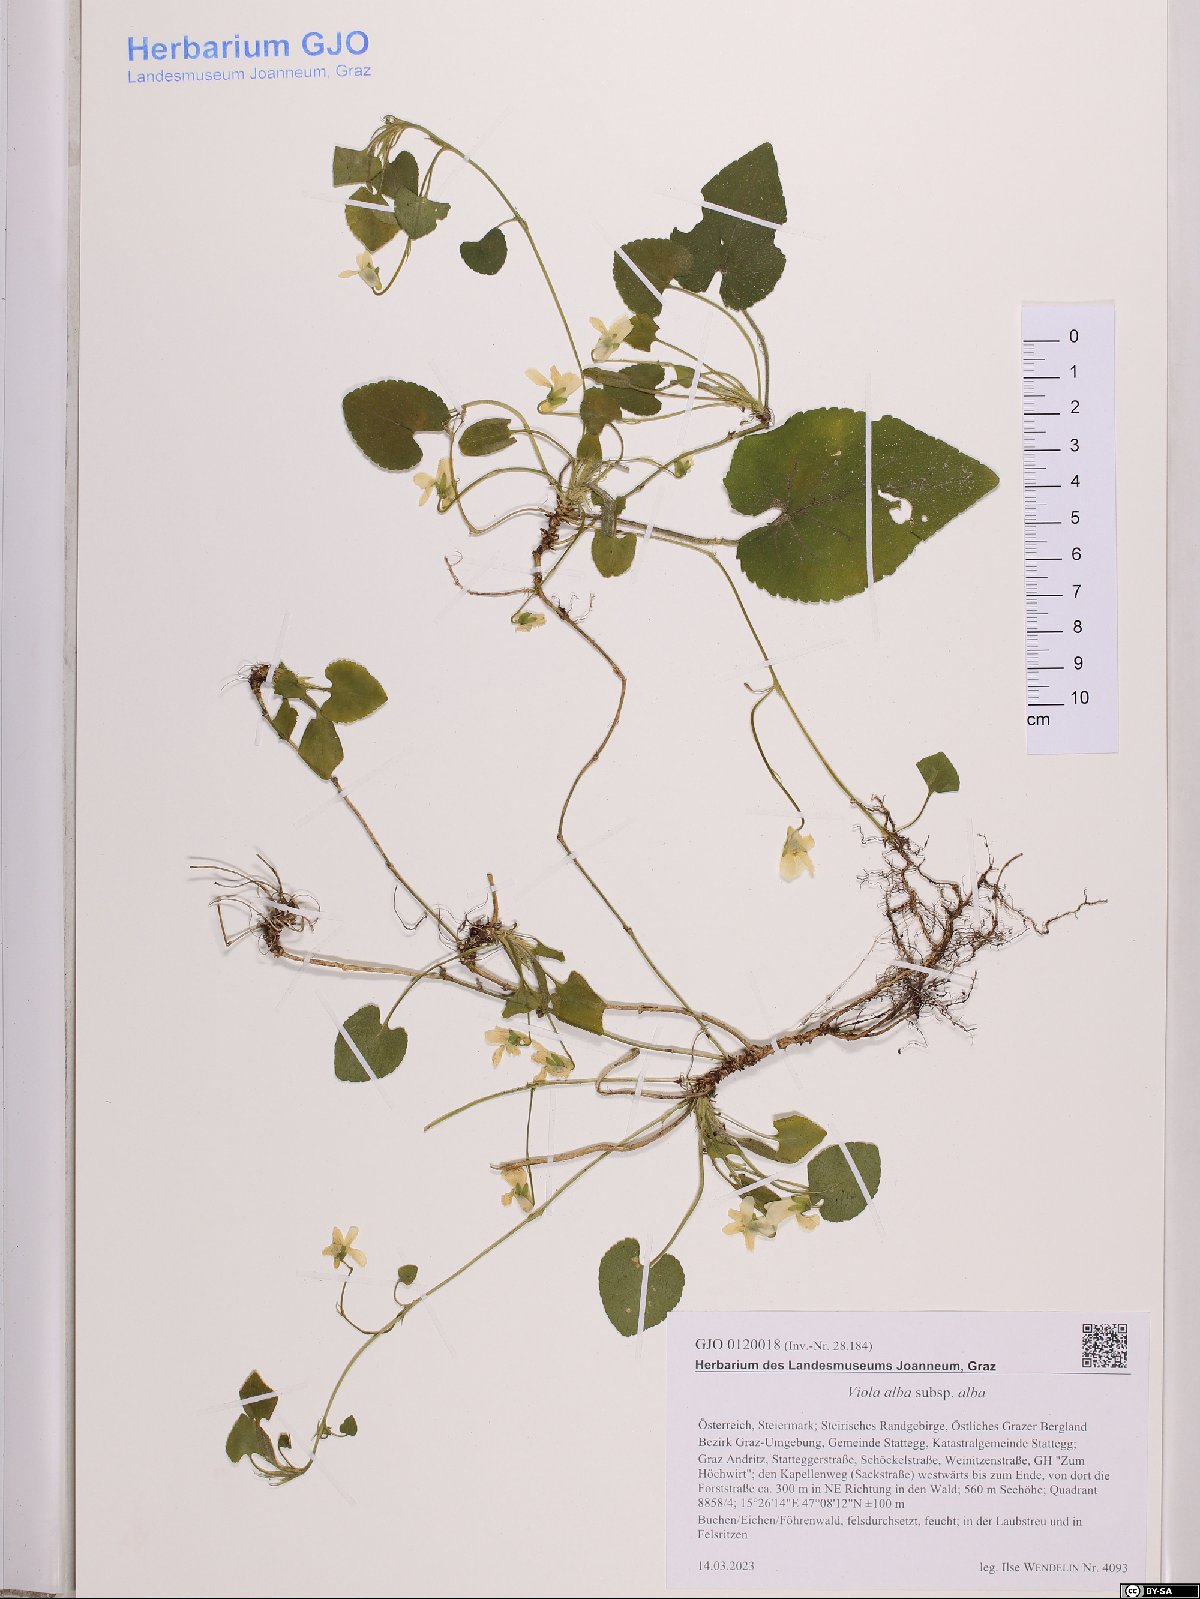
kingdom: Plantae
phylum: Tracheophyta
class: Magnoliopsida
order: Malpighiales
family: Violaceae
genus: Viola
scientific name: Viola alba
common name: White violet
